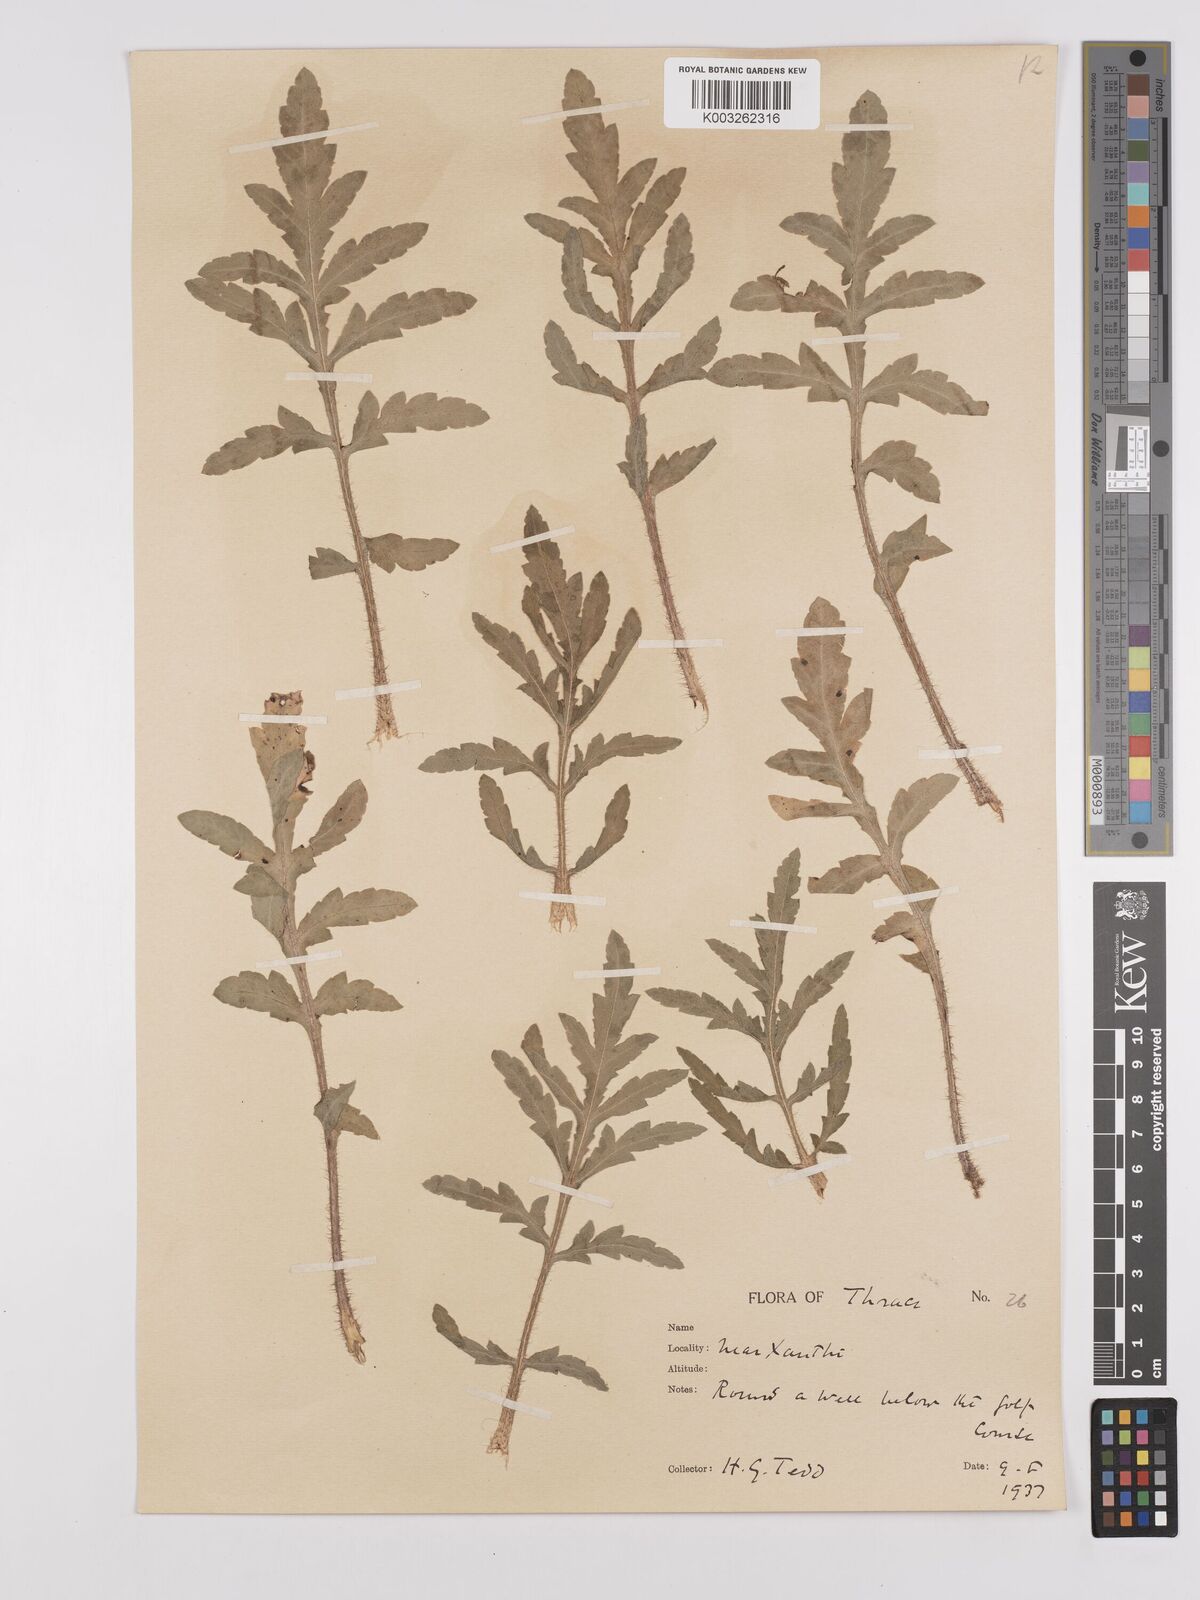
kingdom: Plantae
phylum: Tracheophyta
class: Magnoliopsida
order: Ranunculales
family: Papaveraceae
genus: Papaver
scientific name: Papaver rhoeas
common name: Corn poppy
